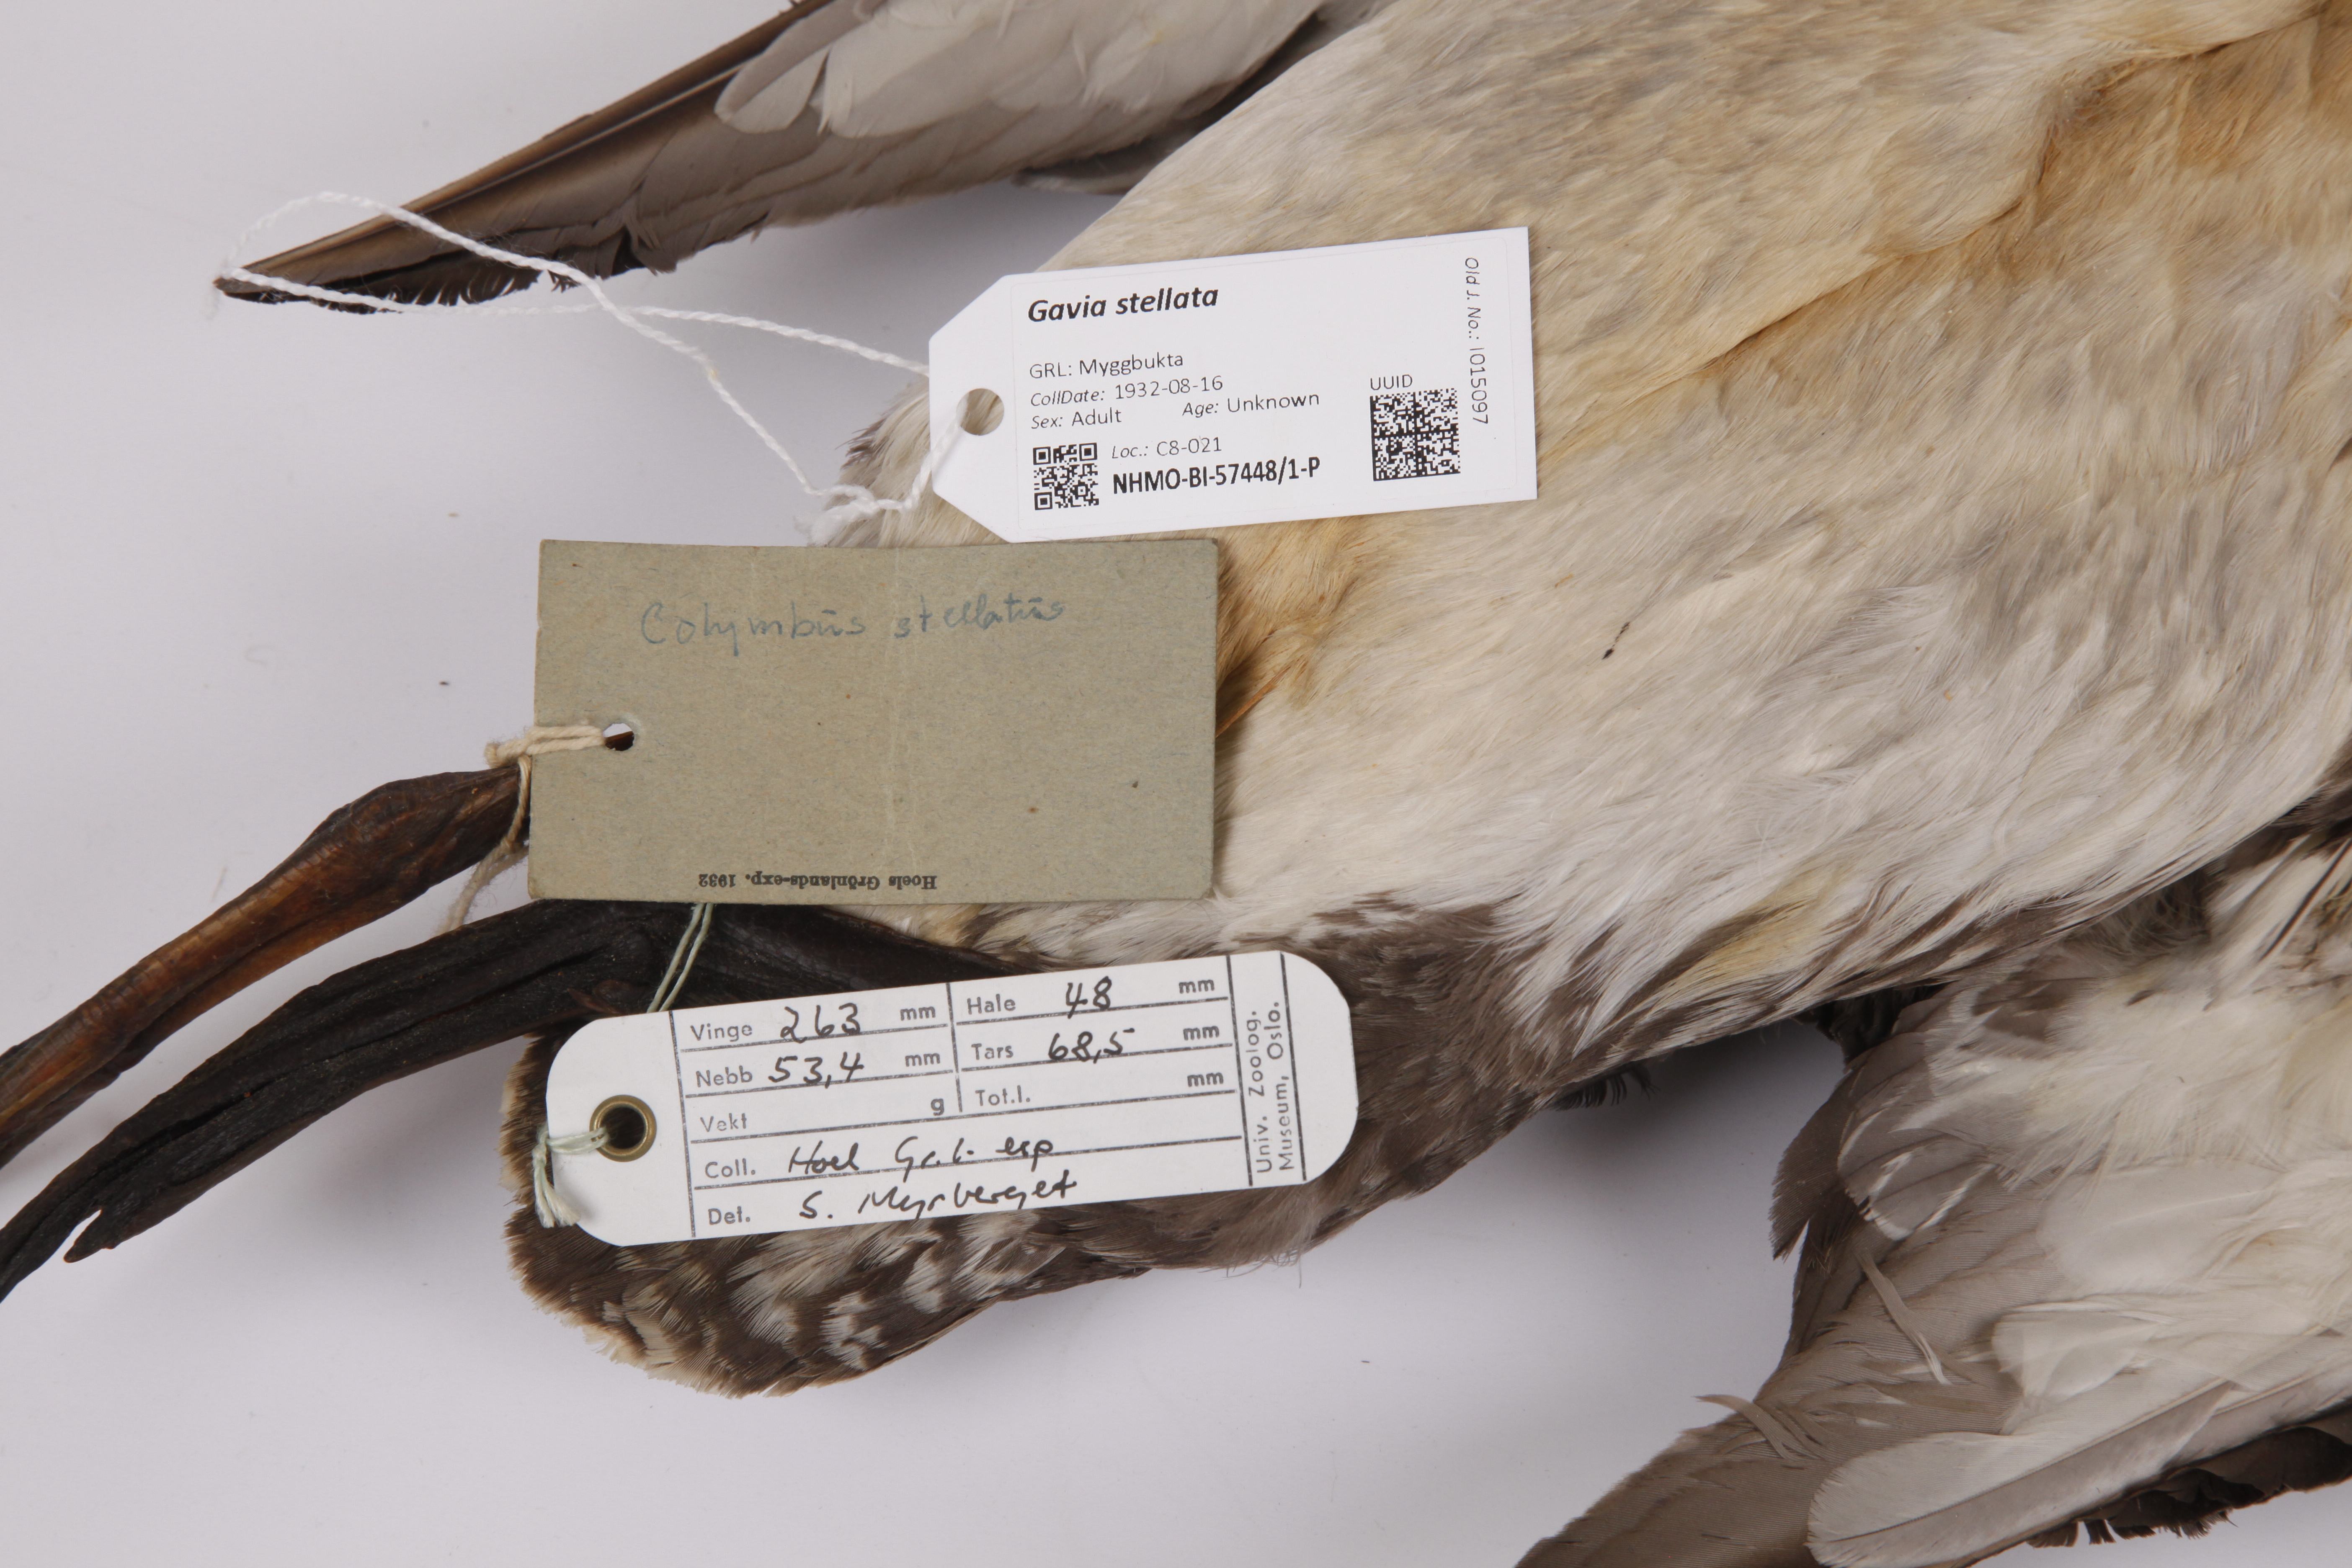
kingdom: Animalia
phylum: Chordata
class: Aves
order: Gaviiformes
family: Gaviidae
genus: Gavia
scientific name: Gavia stellata
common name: Red-throated loon
